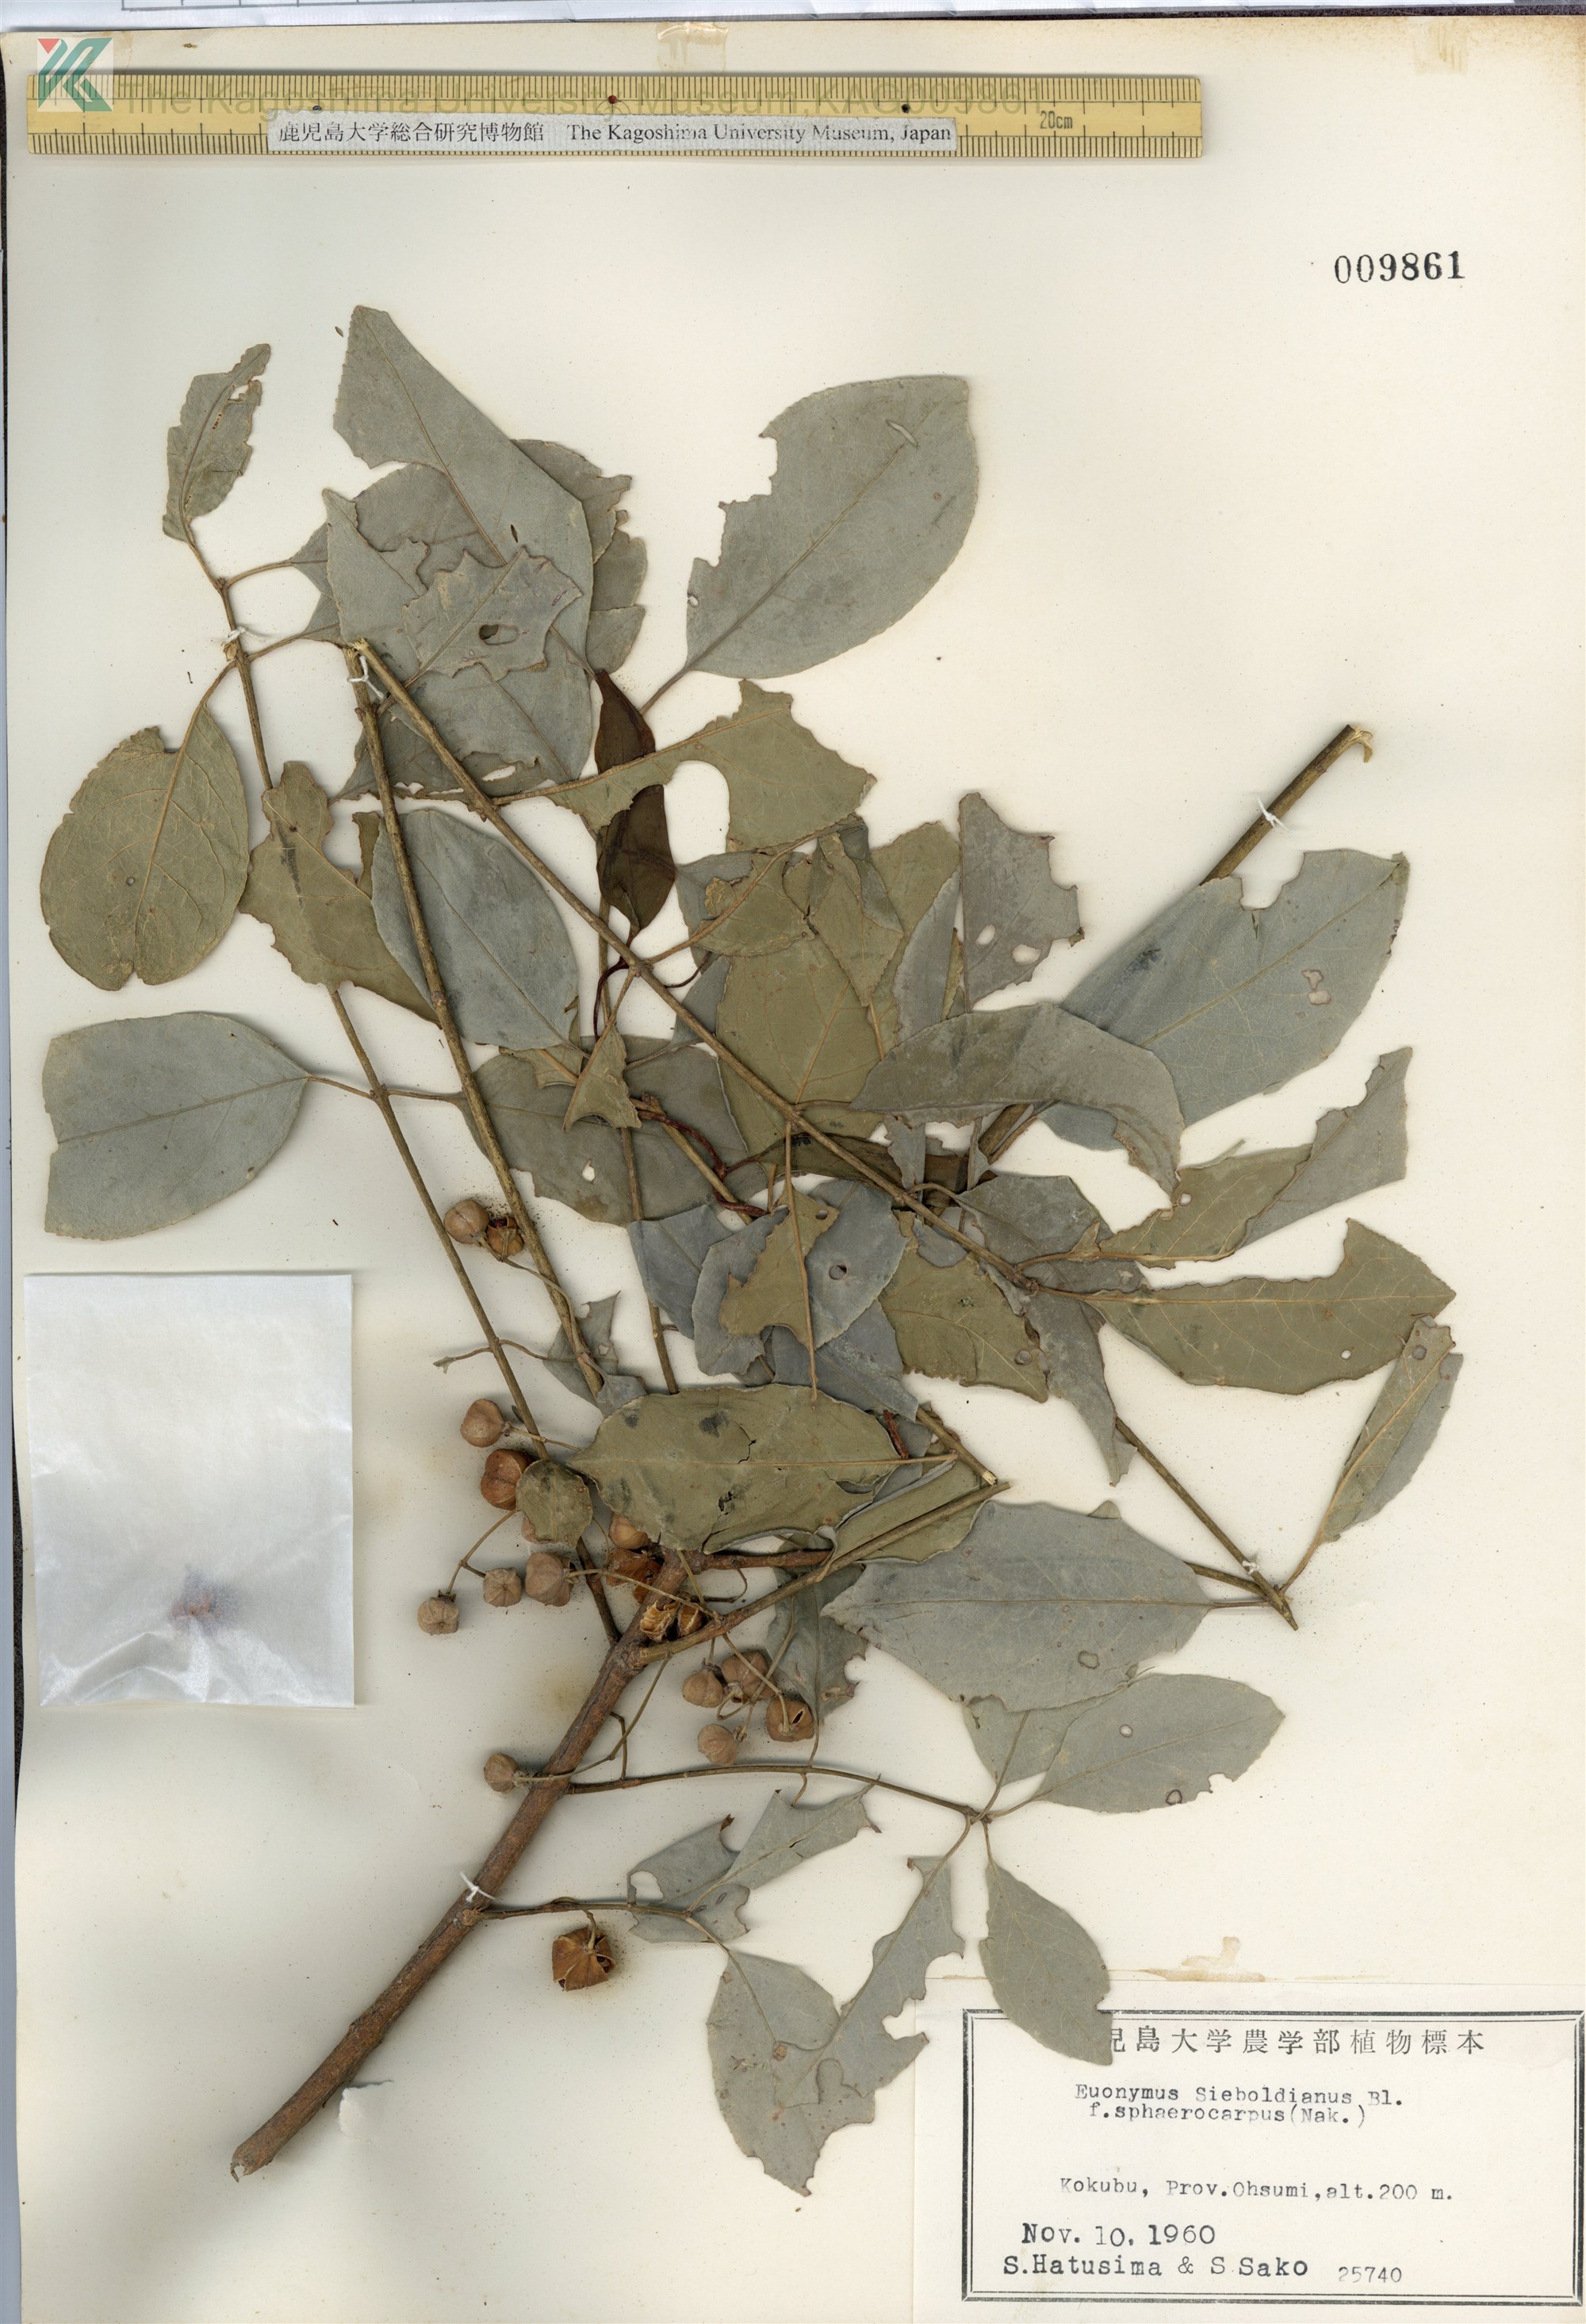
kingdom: Plantae
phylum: Tracheophyta
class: Magnoliopsida
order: Celastrales
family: Celastraceae
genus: Euonymus
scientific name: Euonymus hamiltonianus
